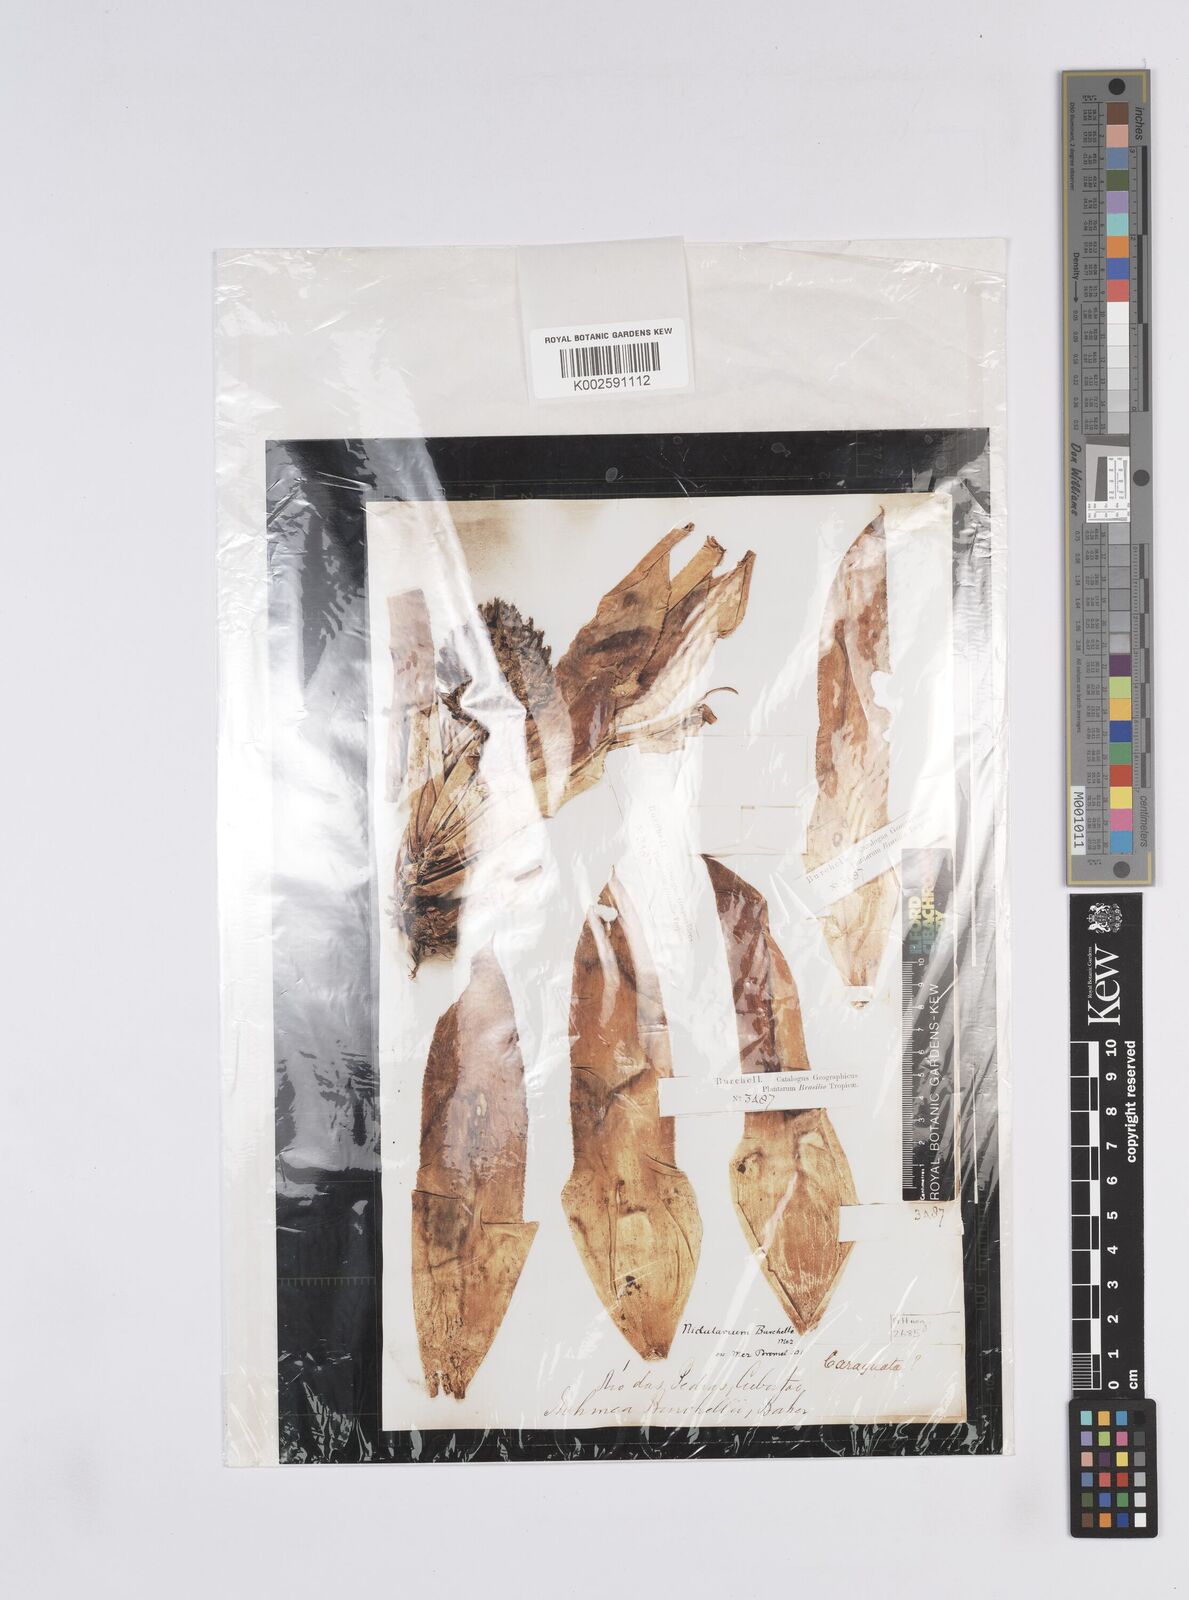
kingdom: Plantae
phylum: Tracheophyta
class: Liliopsida
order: Poales
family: Bromeliaceae
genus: Canistropsis
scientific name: Canistropsis burchellii
